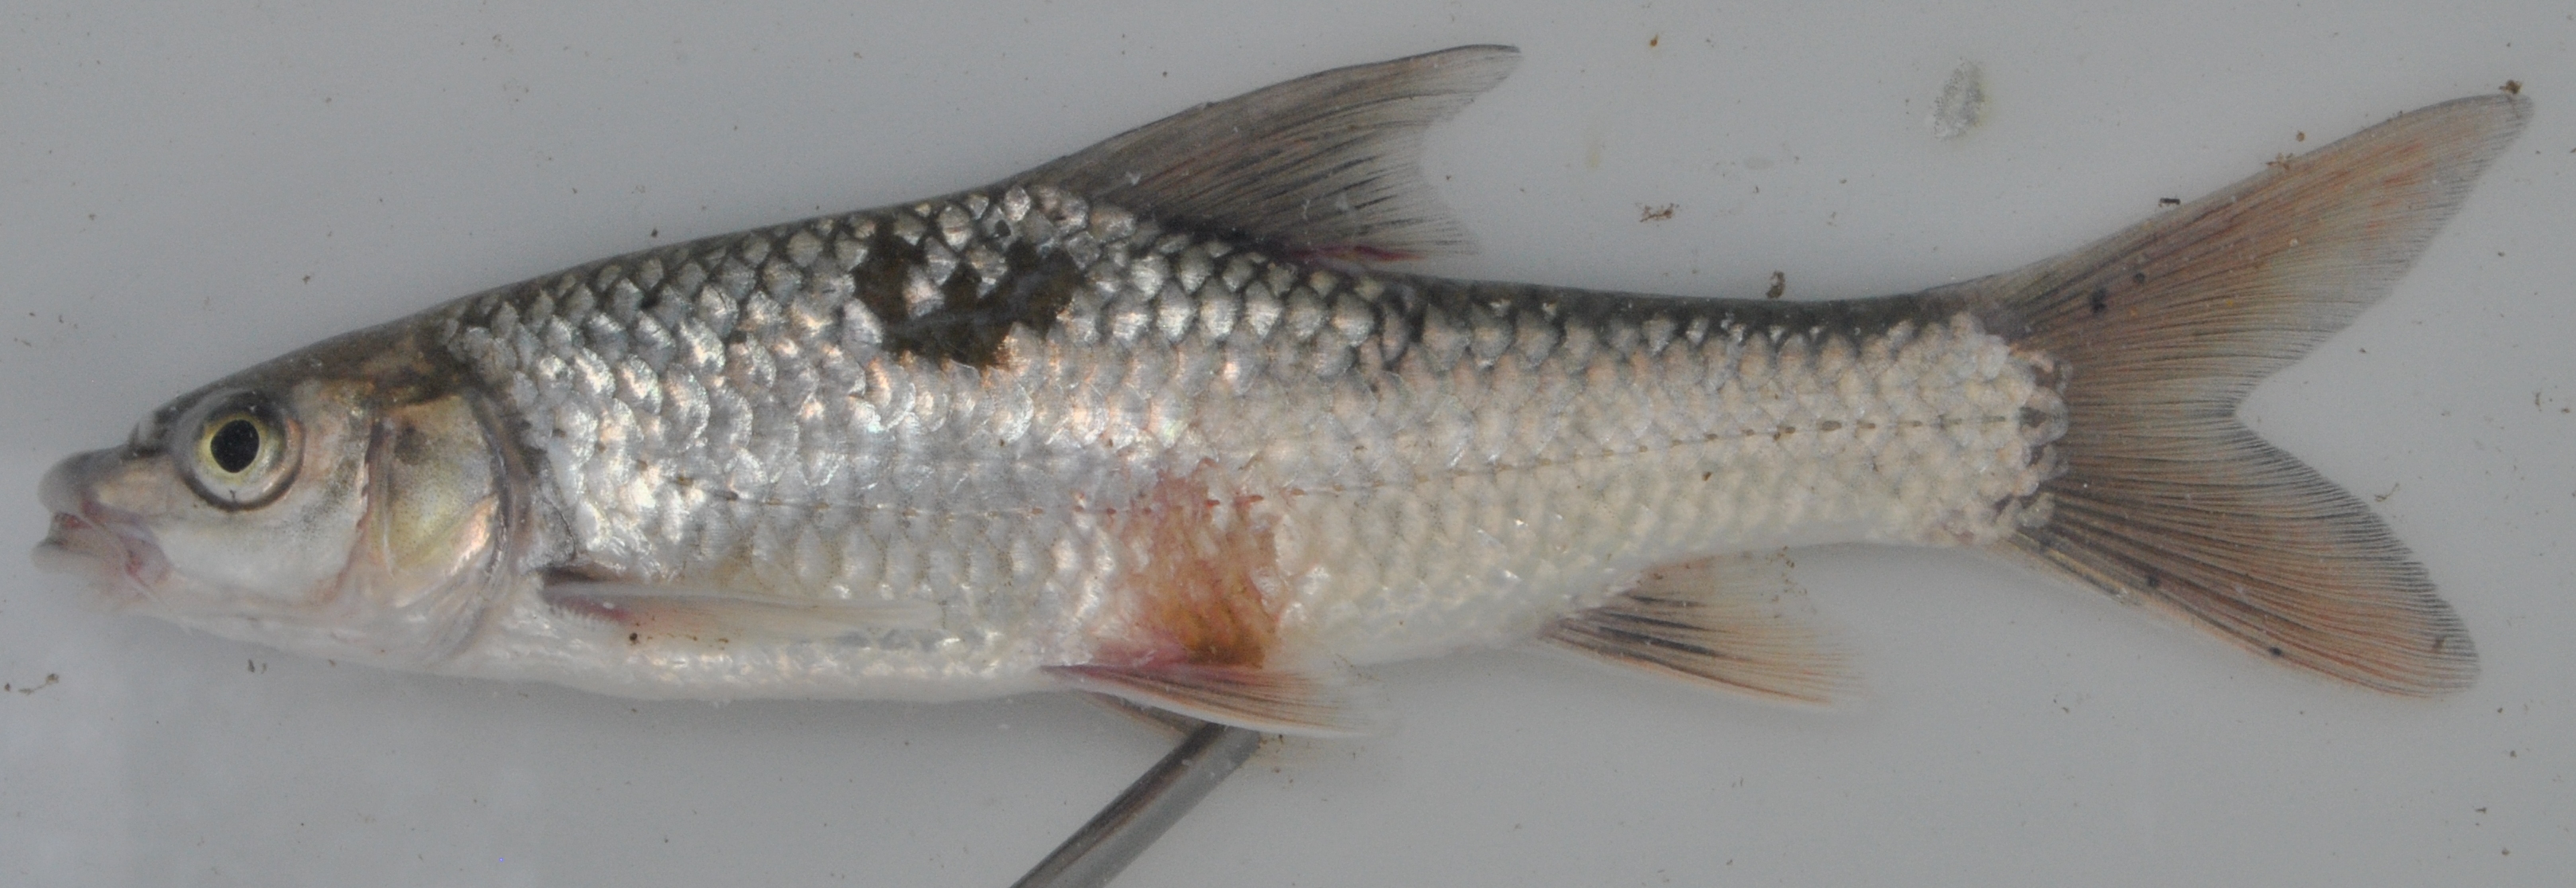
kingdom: Animalia
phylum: Chordata
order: Cypriniformes
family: Cyprinidae
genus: Labeobarbus
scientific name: Labeobarbus natalensis
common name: Scaly
